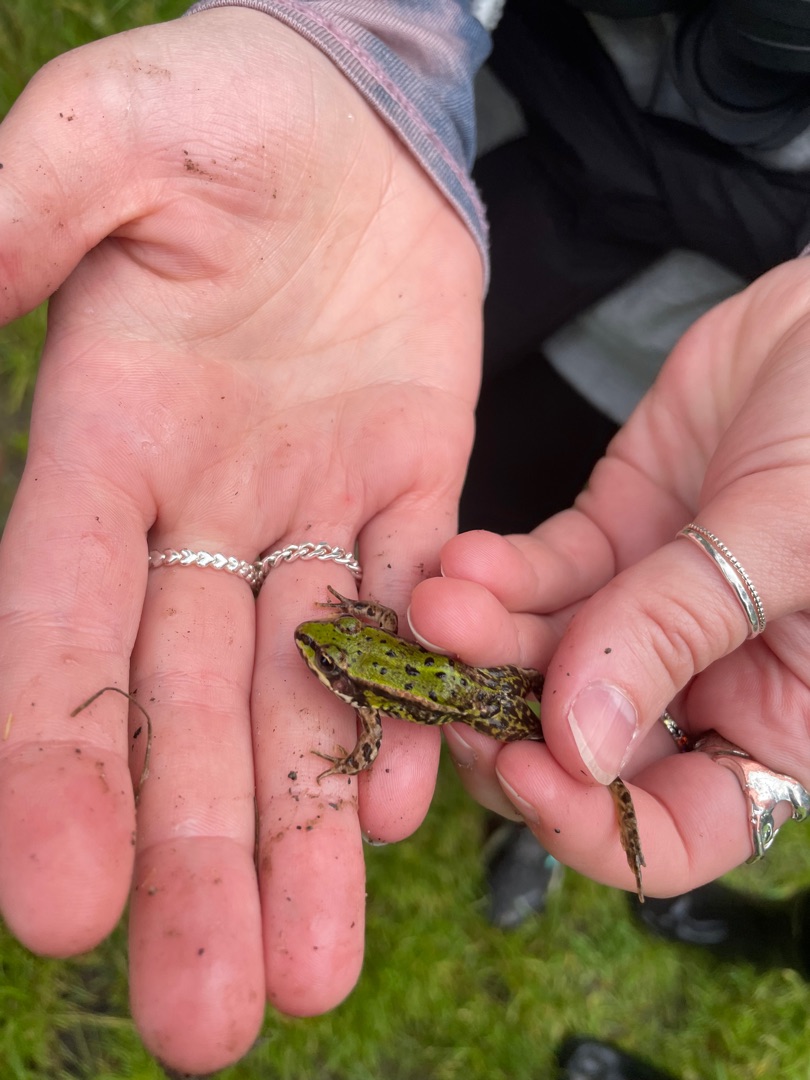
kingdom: Animalia
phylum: Chordata
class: Amphibia
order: Anura
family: Ranidae
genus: Pelophylax
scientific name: Pelophylax lessonae
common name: Grøn frø
